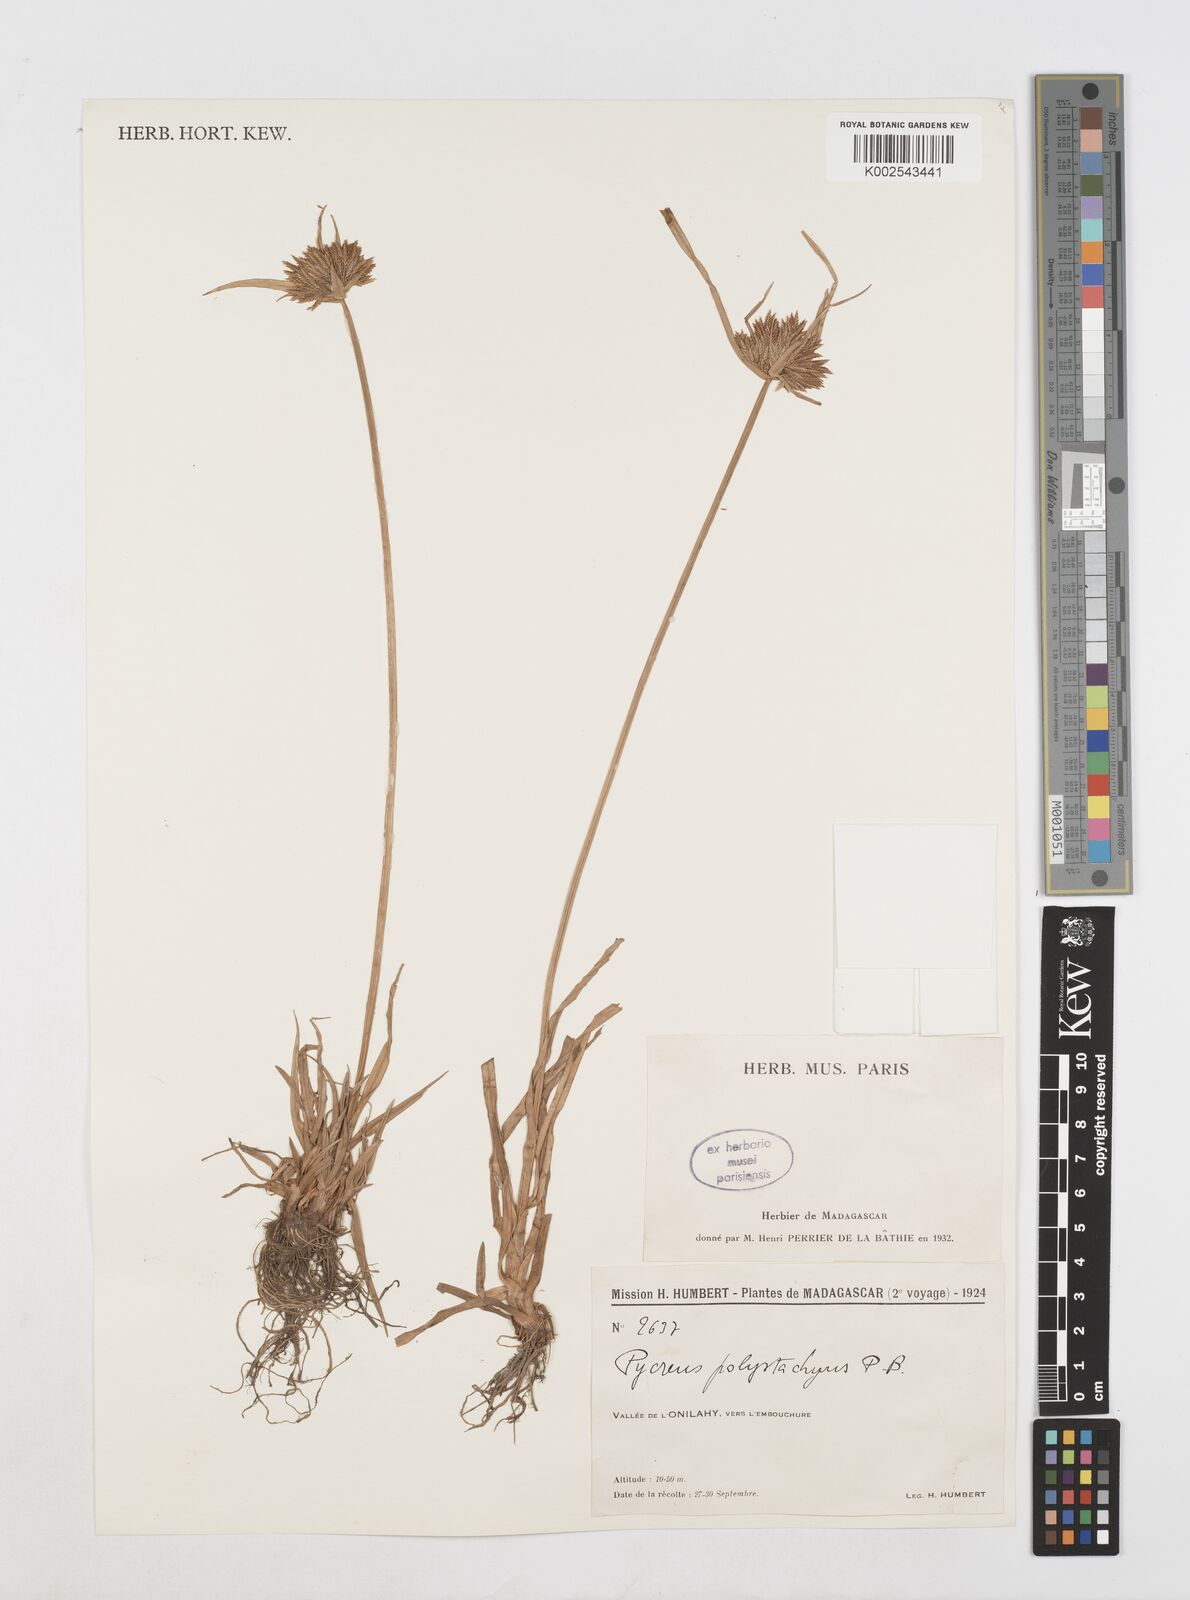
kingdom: Plantae
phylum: Tracheophyta
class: Liliopsida
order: Poales
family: Cyperaceae
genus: Cyperus
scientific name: Cyperus polystachyos
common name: Bunchy flat sedge
